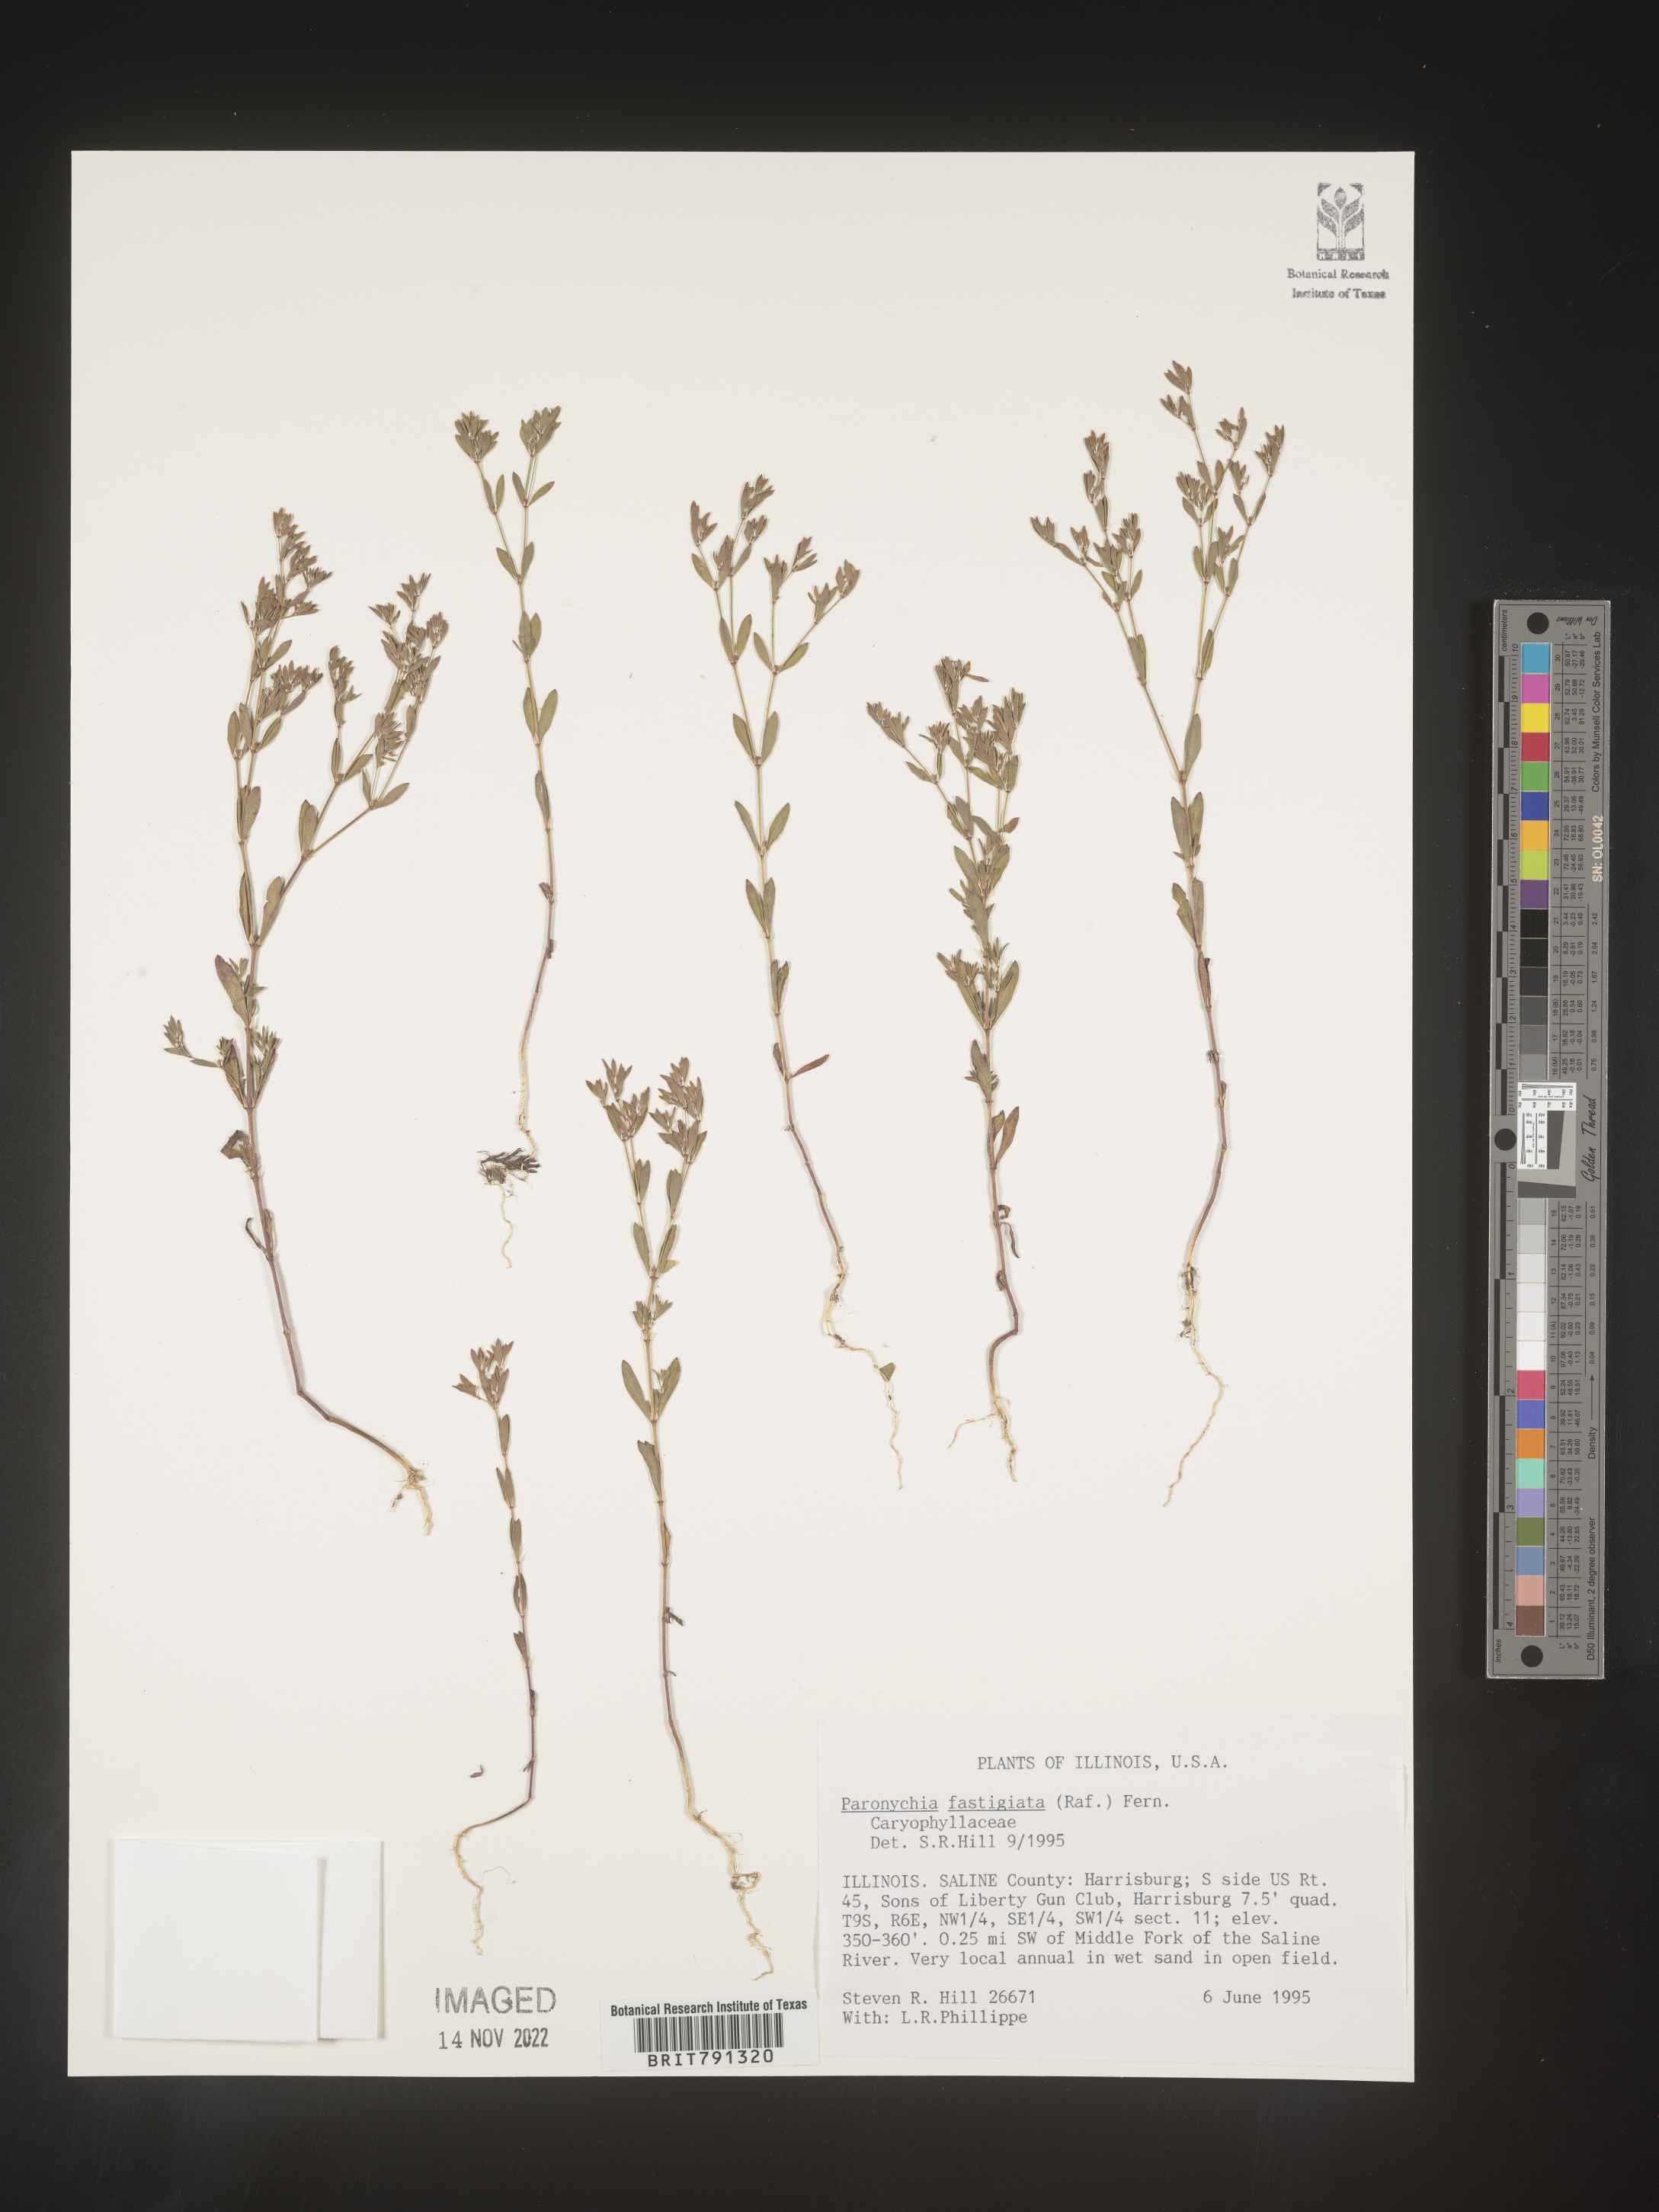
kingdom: Plantae
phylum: Tracheophyta
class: Magnoliopsida
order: Caryophyllales
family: Caryophyllaceae
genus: Paronychia
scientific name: Paronychia fastigiata
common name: Branching forked whitlow-wort
